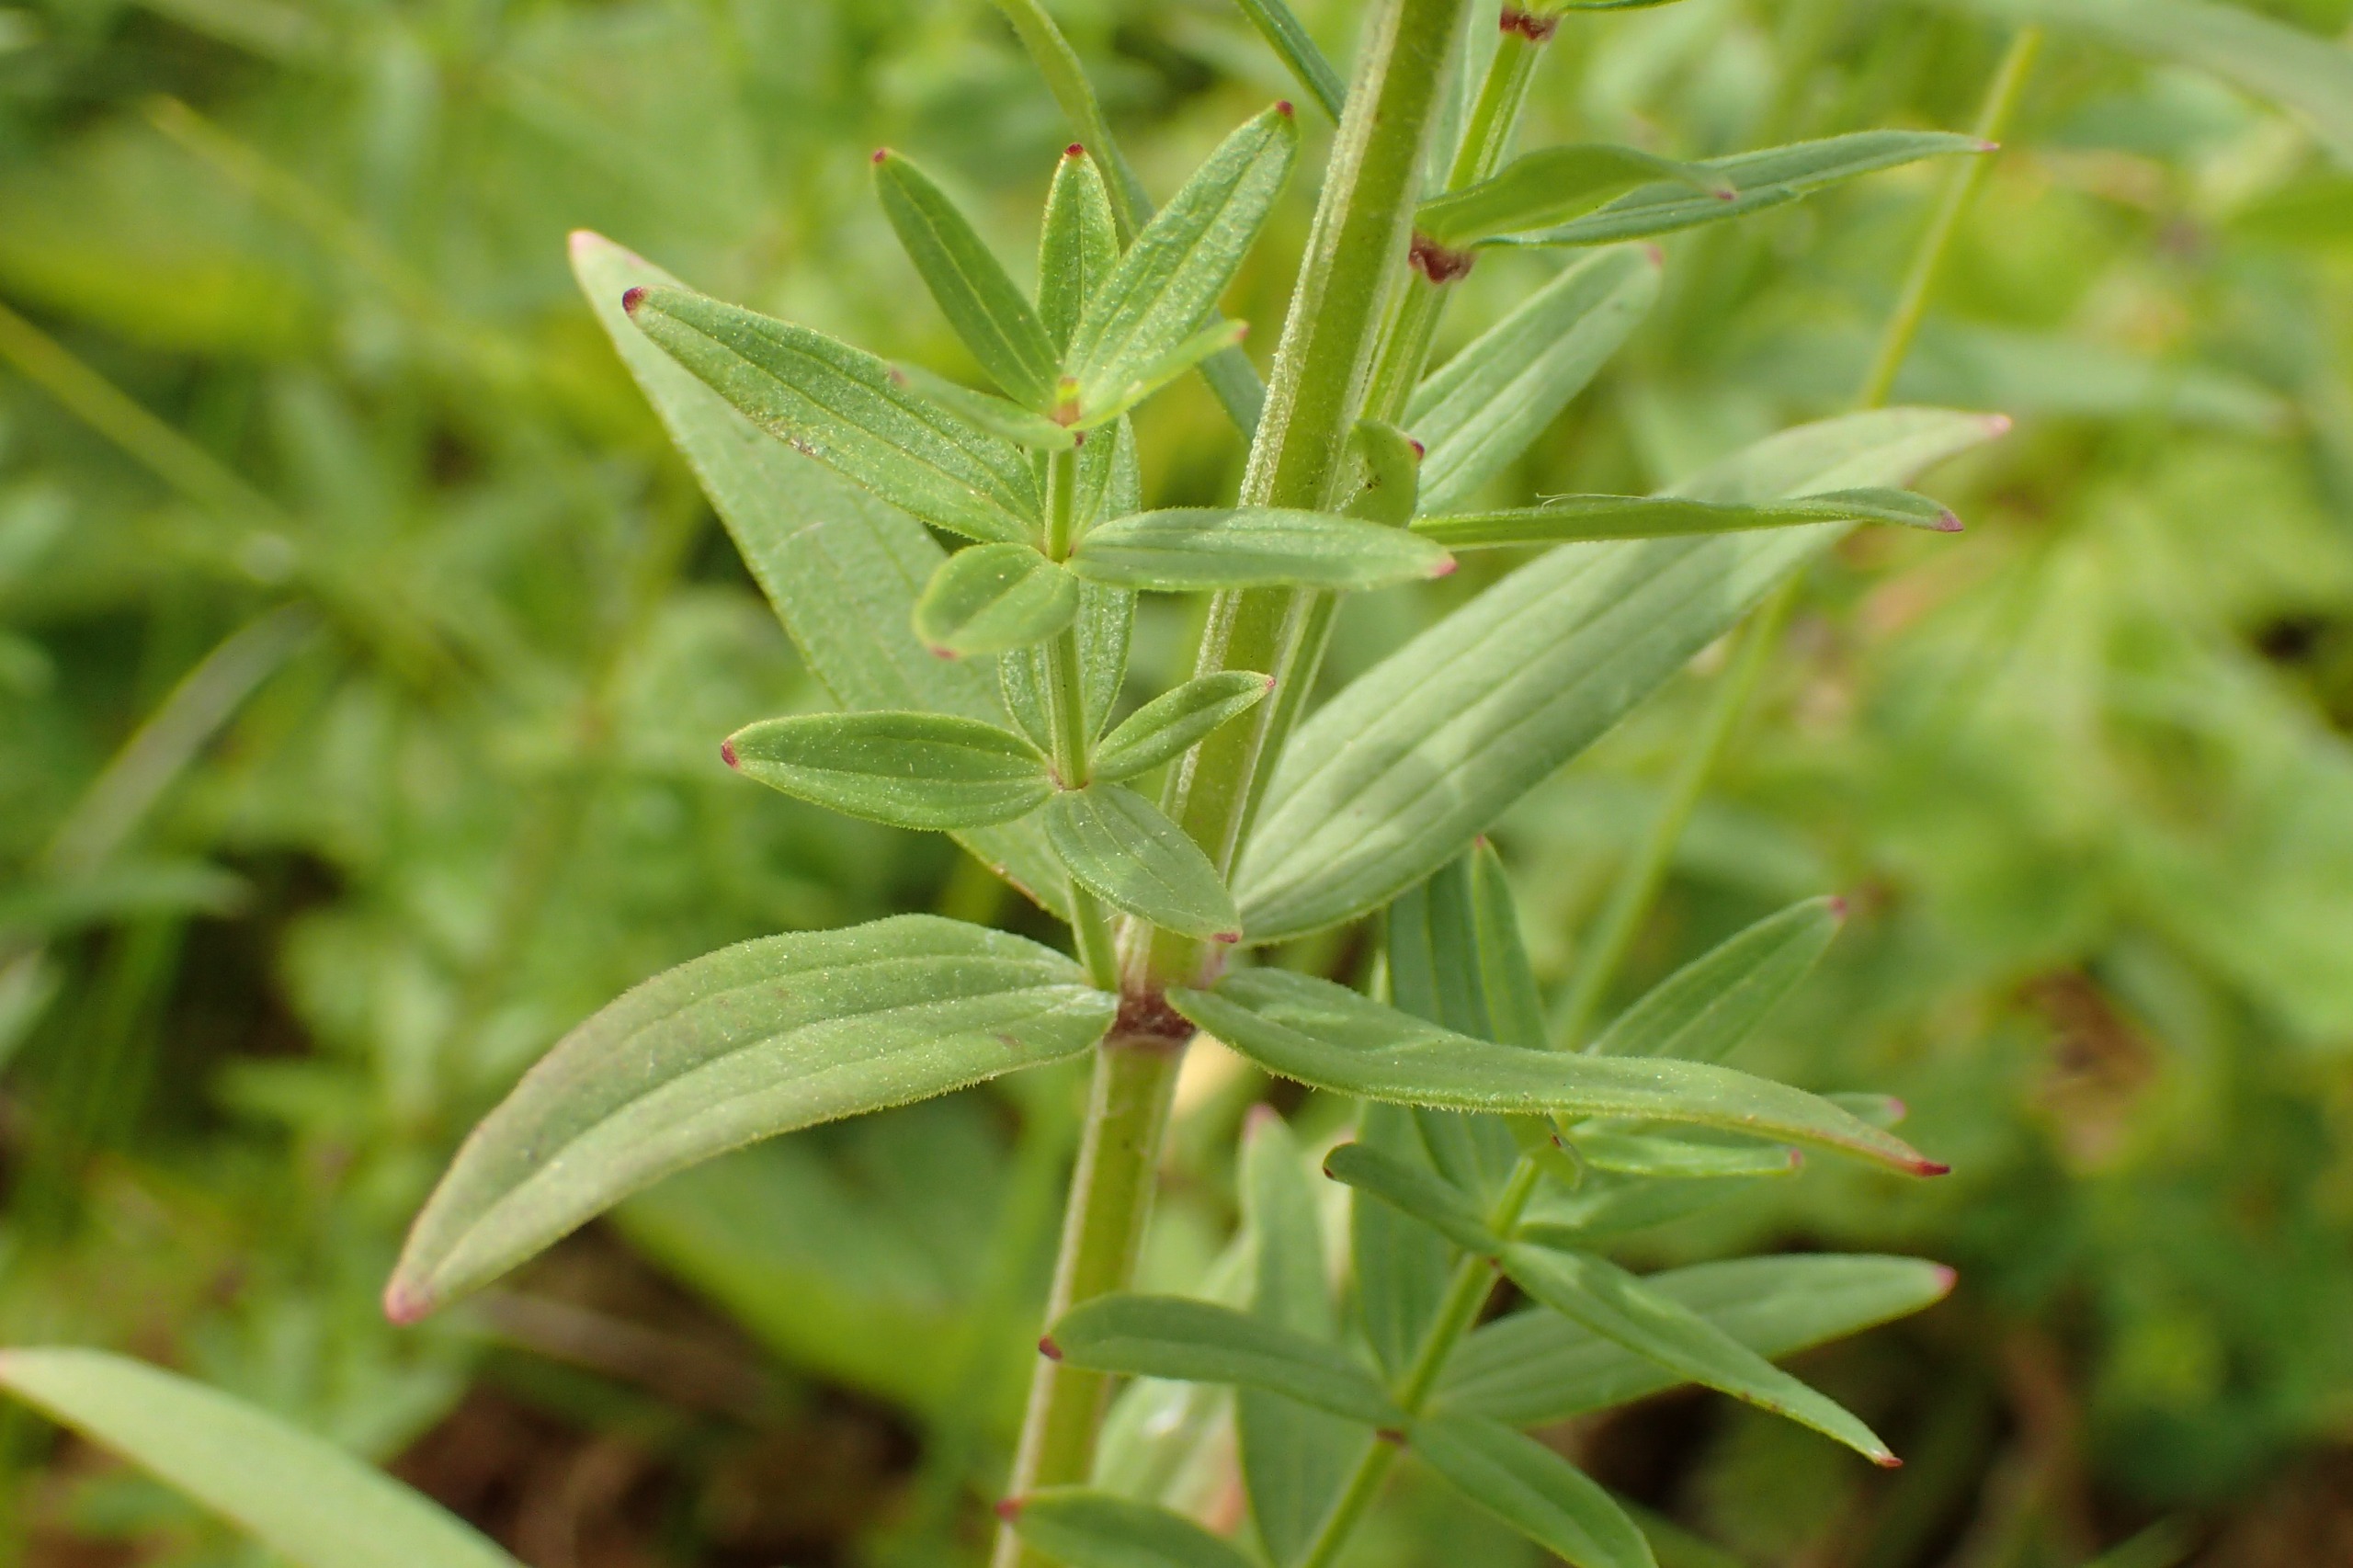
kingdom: Plantae
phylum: Tracheophyta
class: Magnoliopsida
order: Gentianales
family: Rubiaceae
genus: Galium
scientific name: Galium boreale
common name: Trenervet snerre
